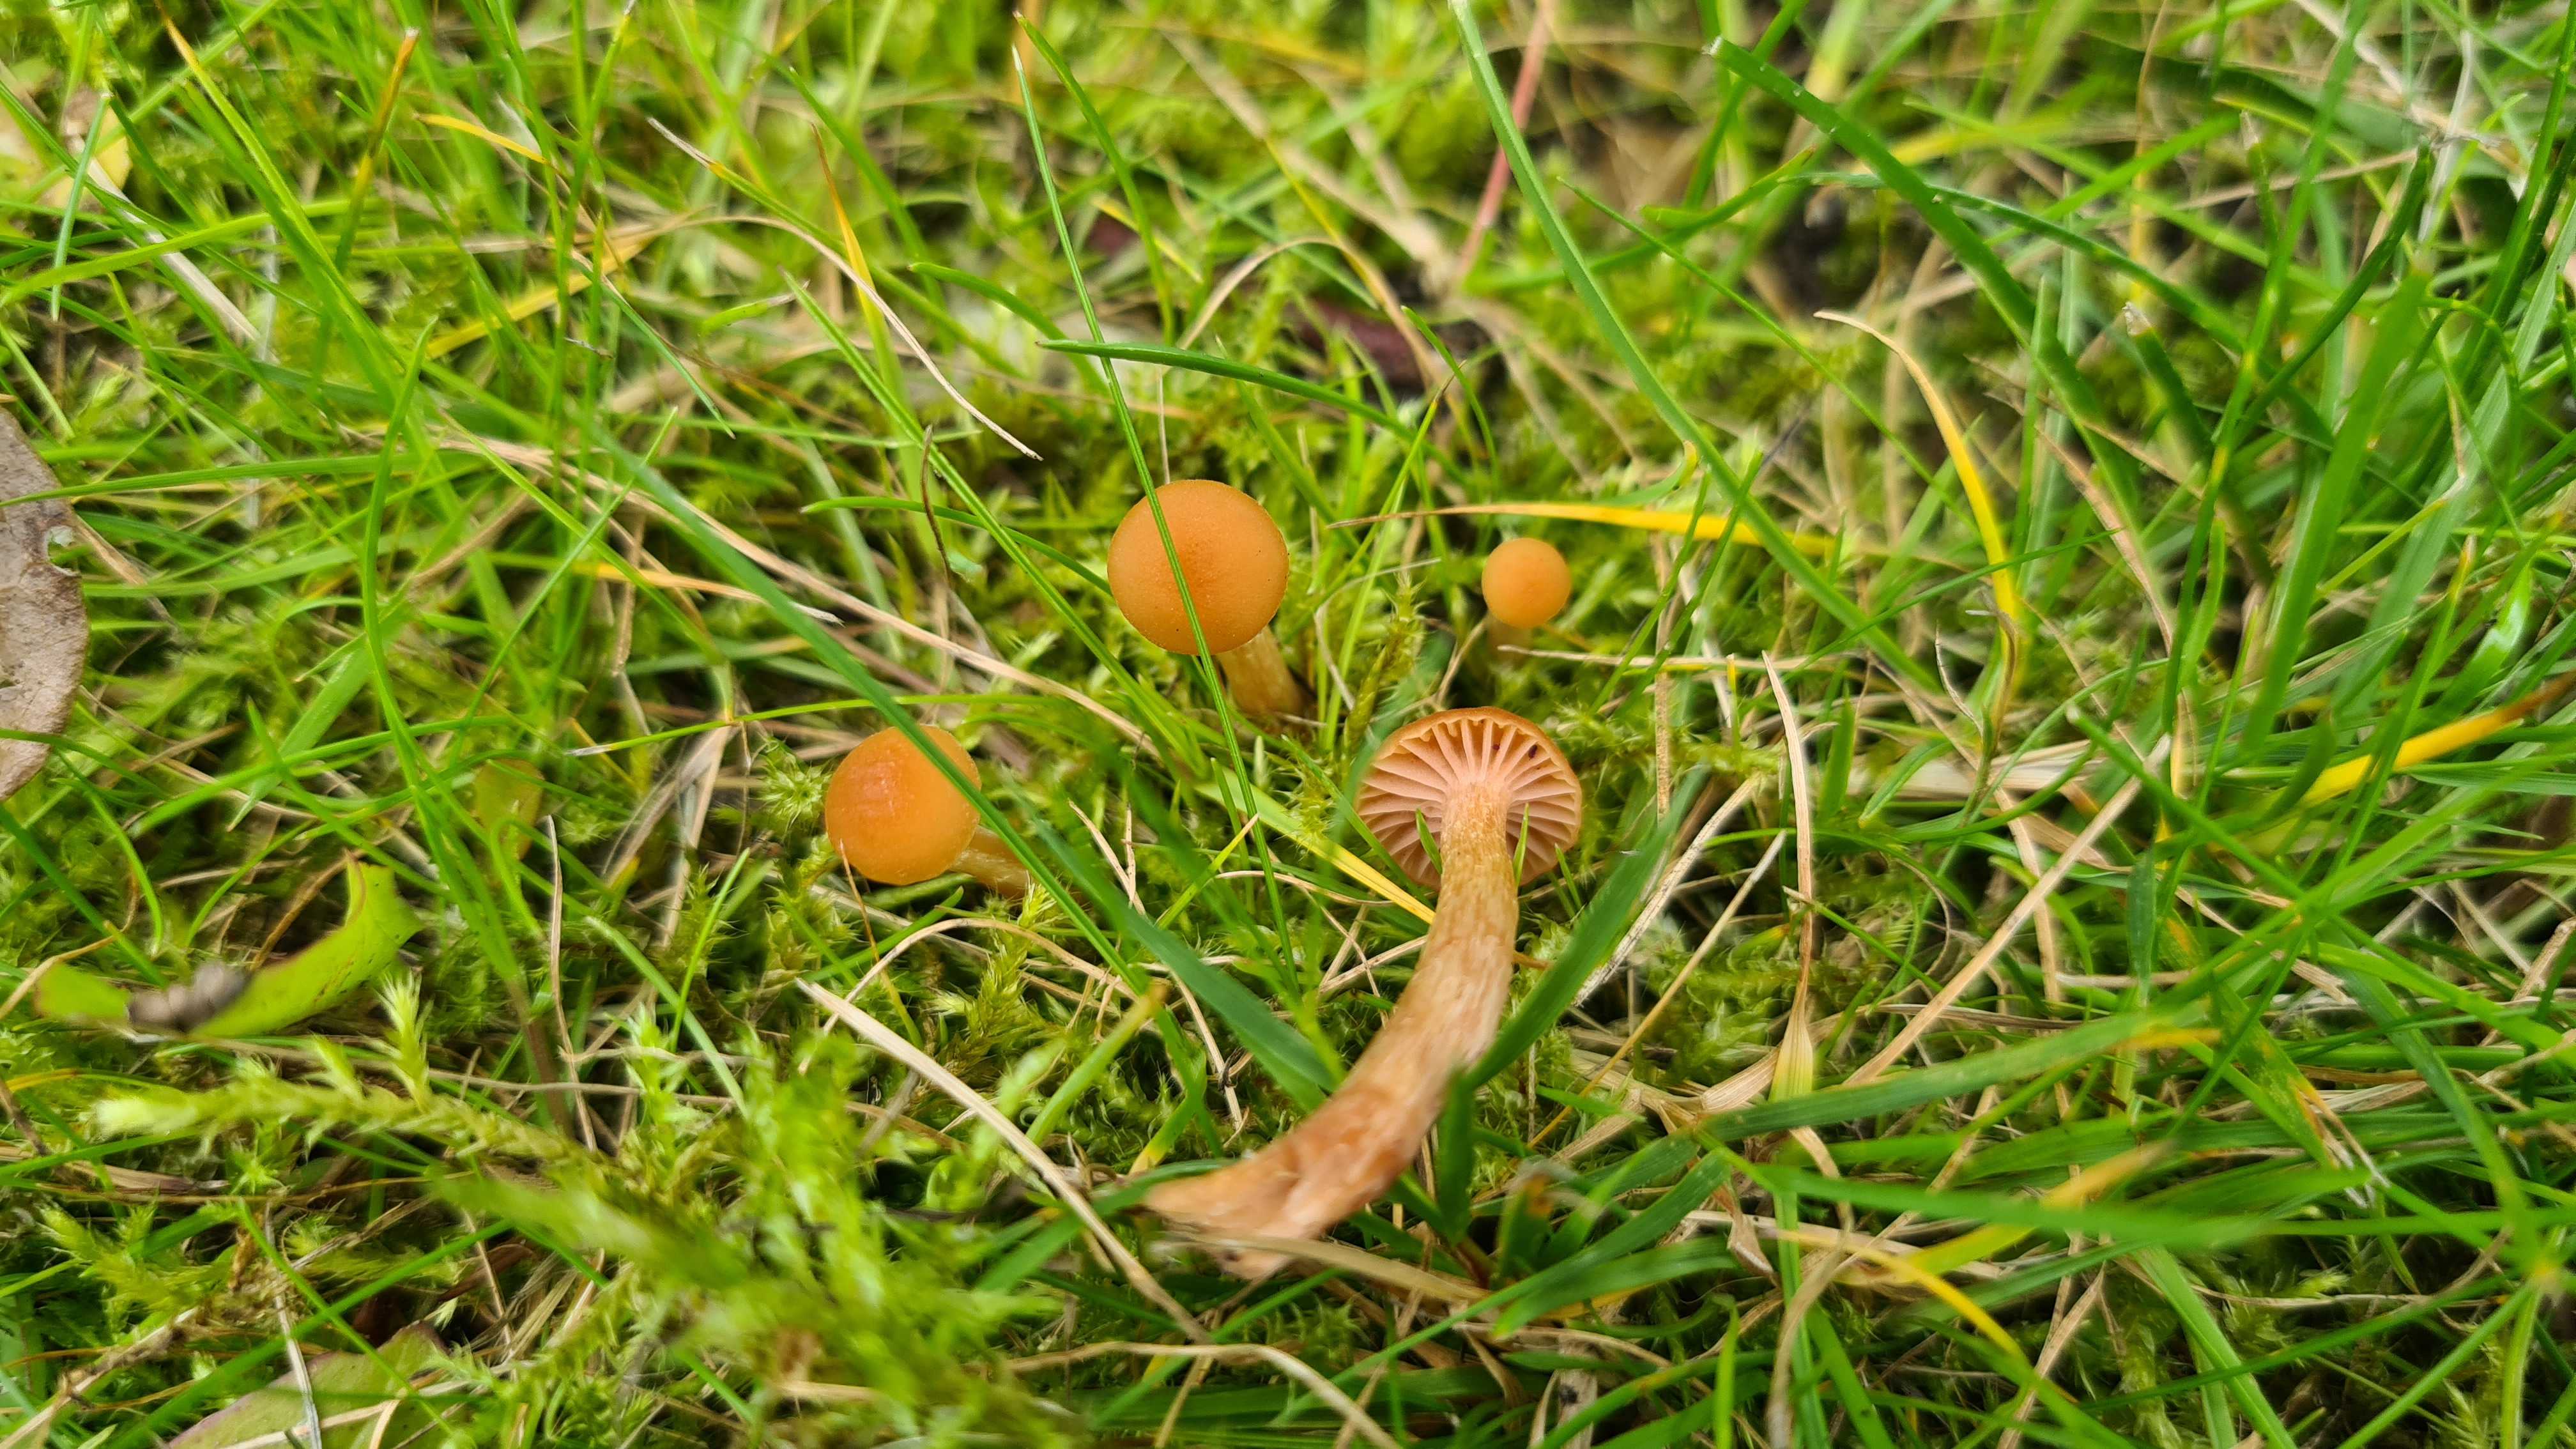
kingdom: Fungi
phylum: Basidiomycota
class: Agaricomycetes
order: Agaricales
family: Hydnangiaceae
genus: Laccaria
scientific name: Laccaria laccata
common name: rød ametysthat
